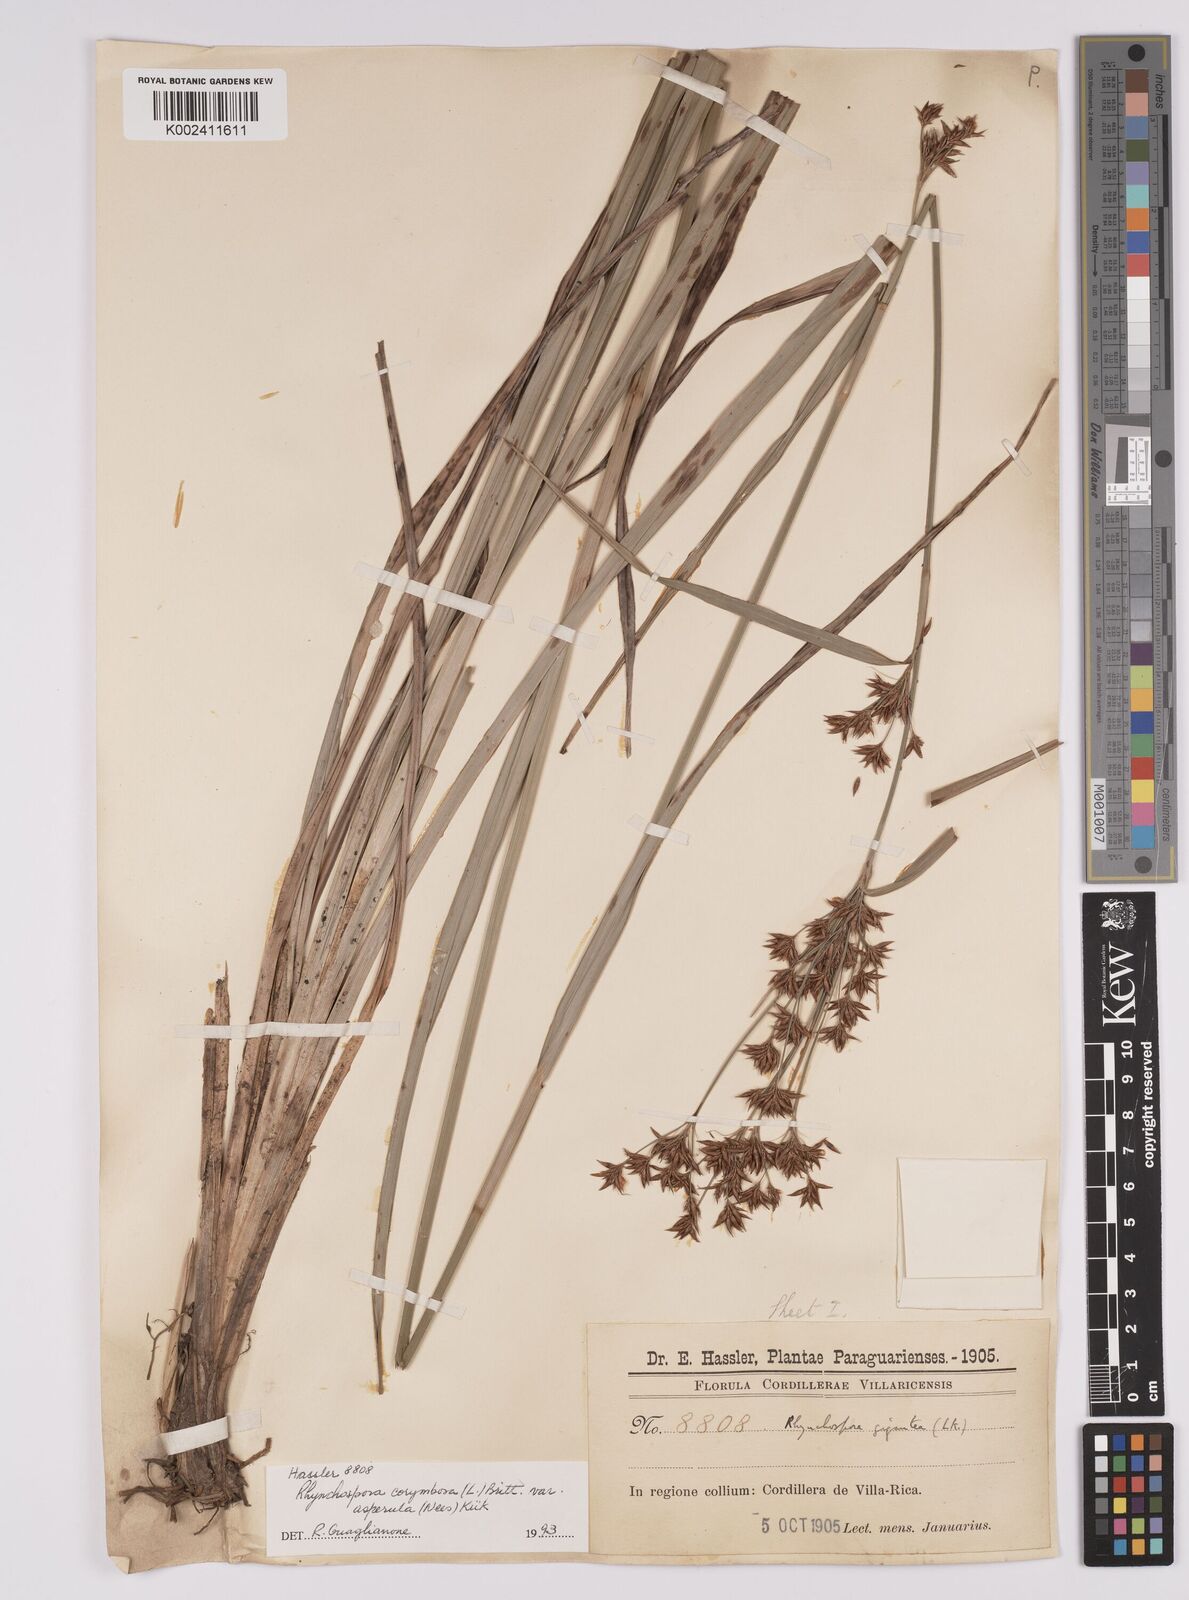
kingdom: Plantae
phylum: Tracheophyta
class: Liliopsida
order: Poales
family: Cyperaceae
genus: Rhynchospora
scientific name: Rhynchospora asperula
